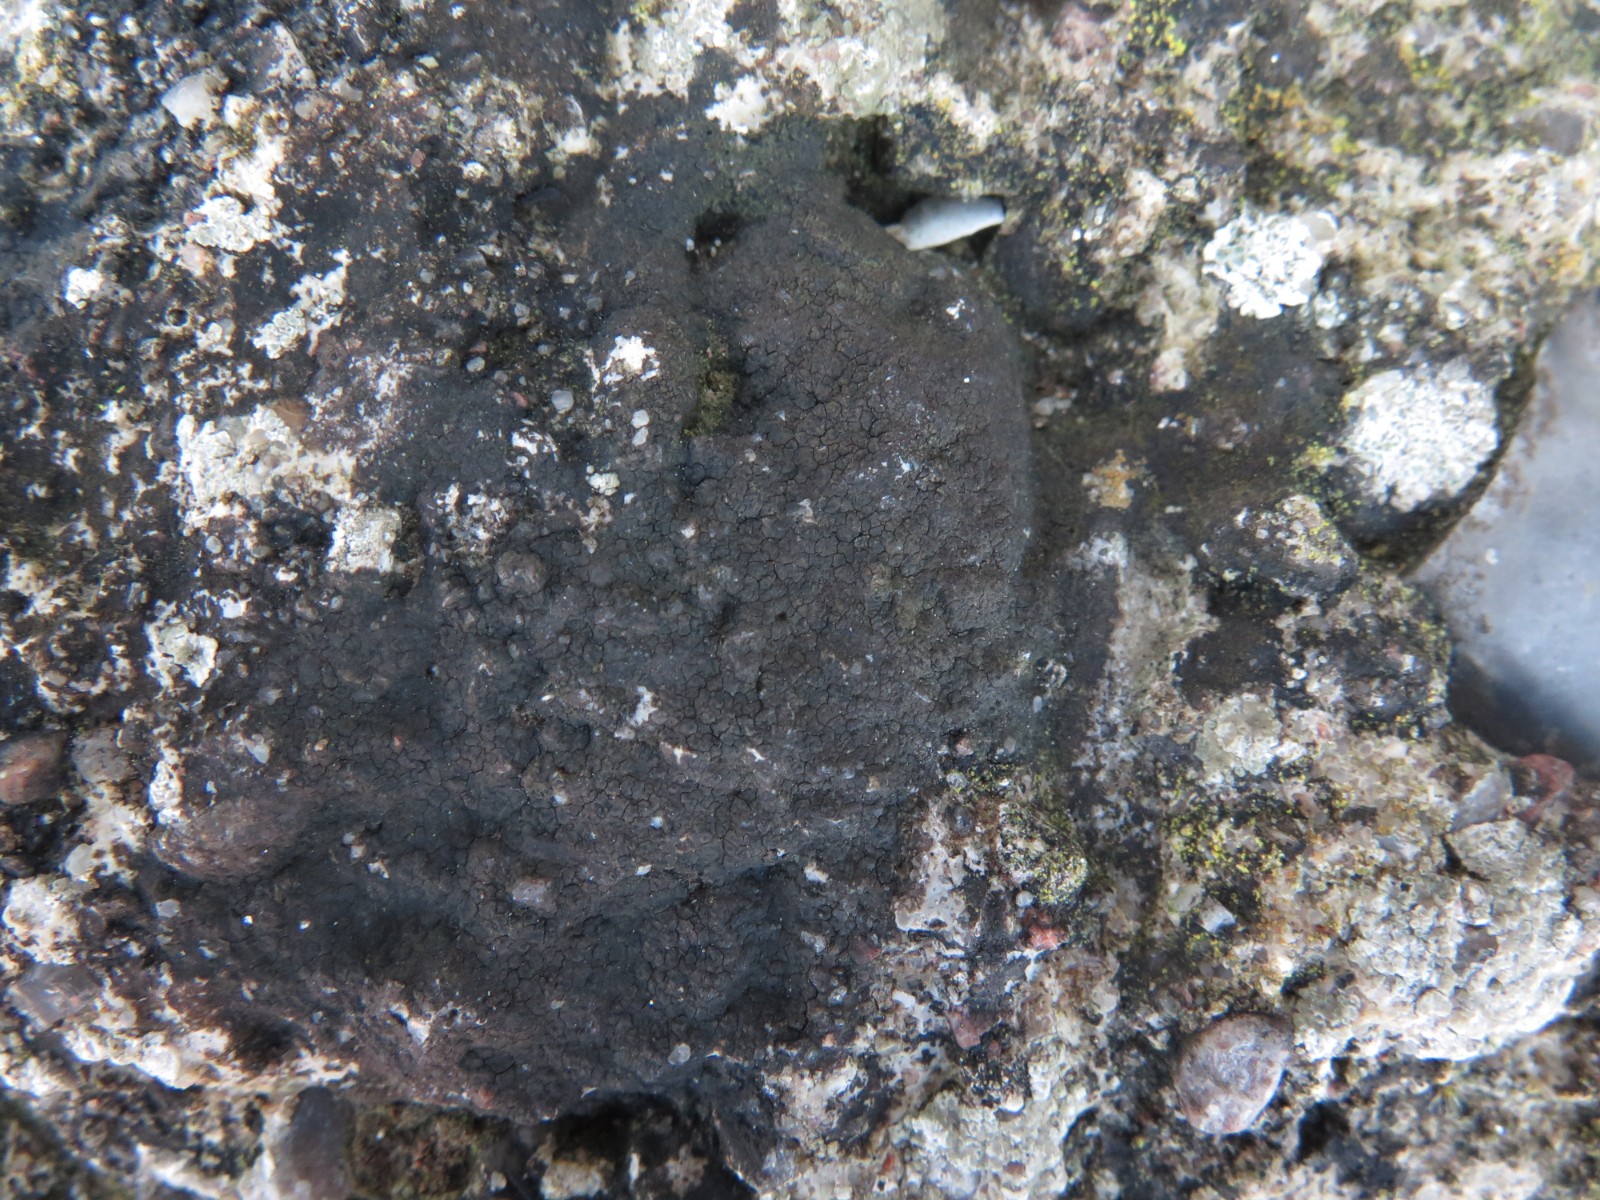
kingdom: Fungi
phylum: Ascomycota
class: Eurotiomycetes
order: Verrucariales
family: Verrucariaceae
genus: Verrucaria
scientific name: Verrucaria nigrescens
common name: sortbrun vortelav
